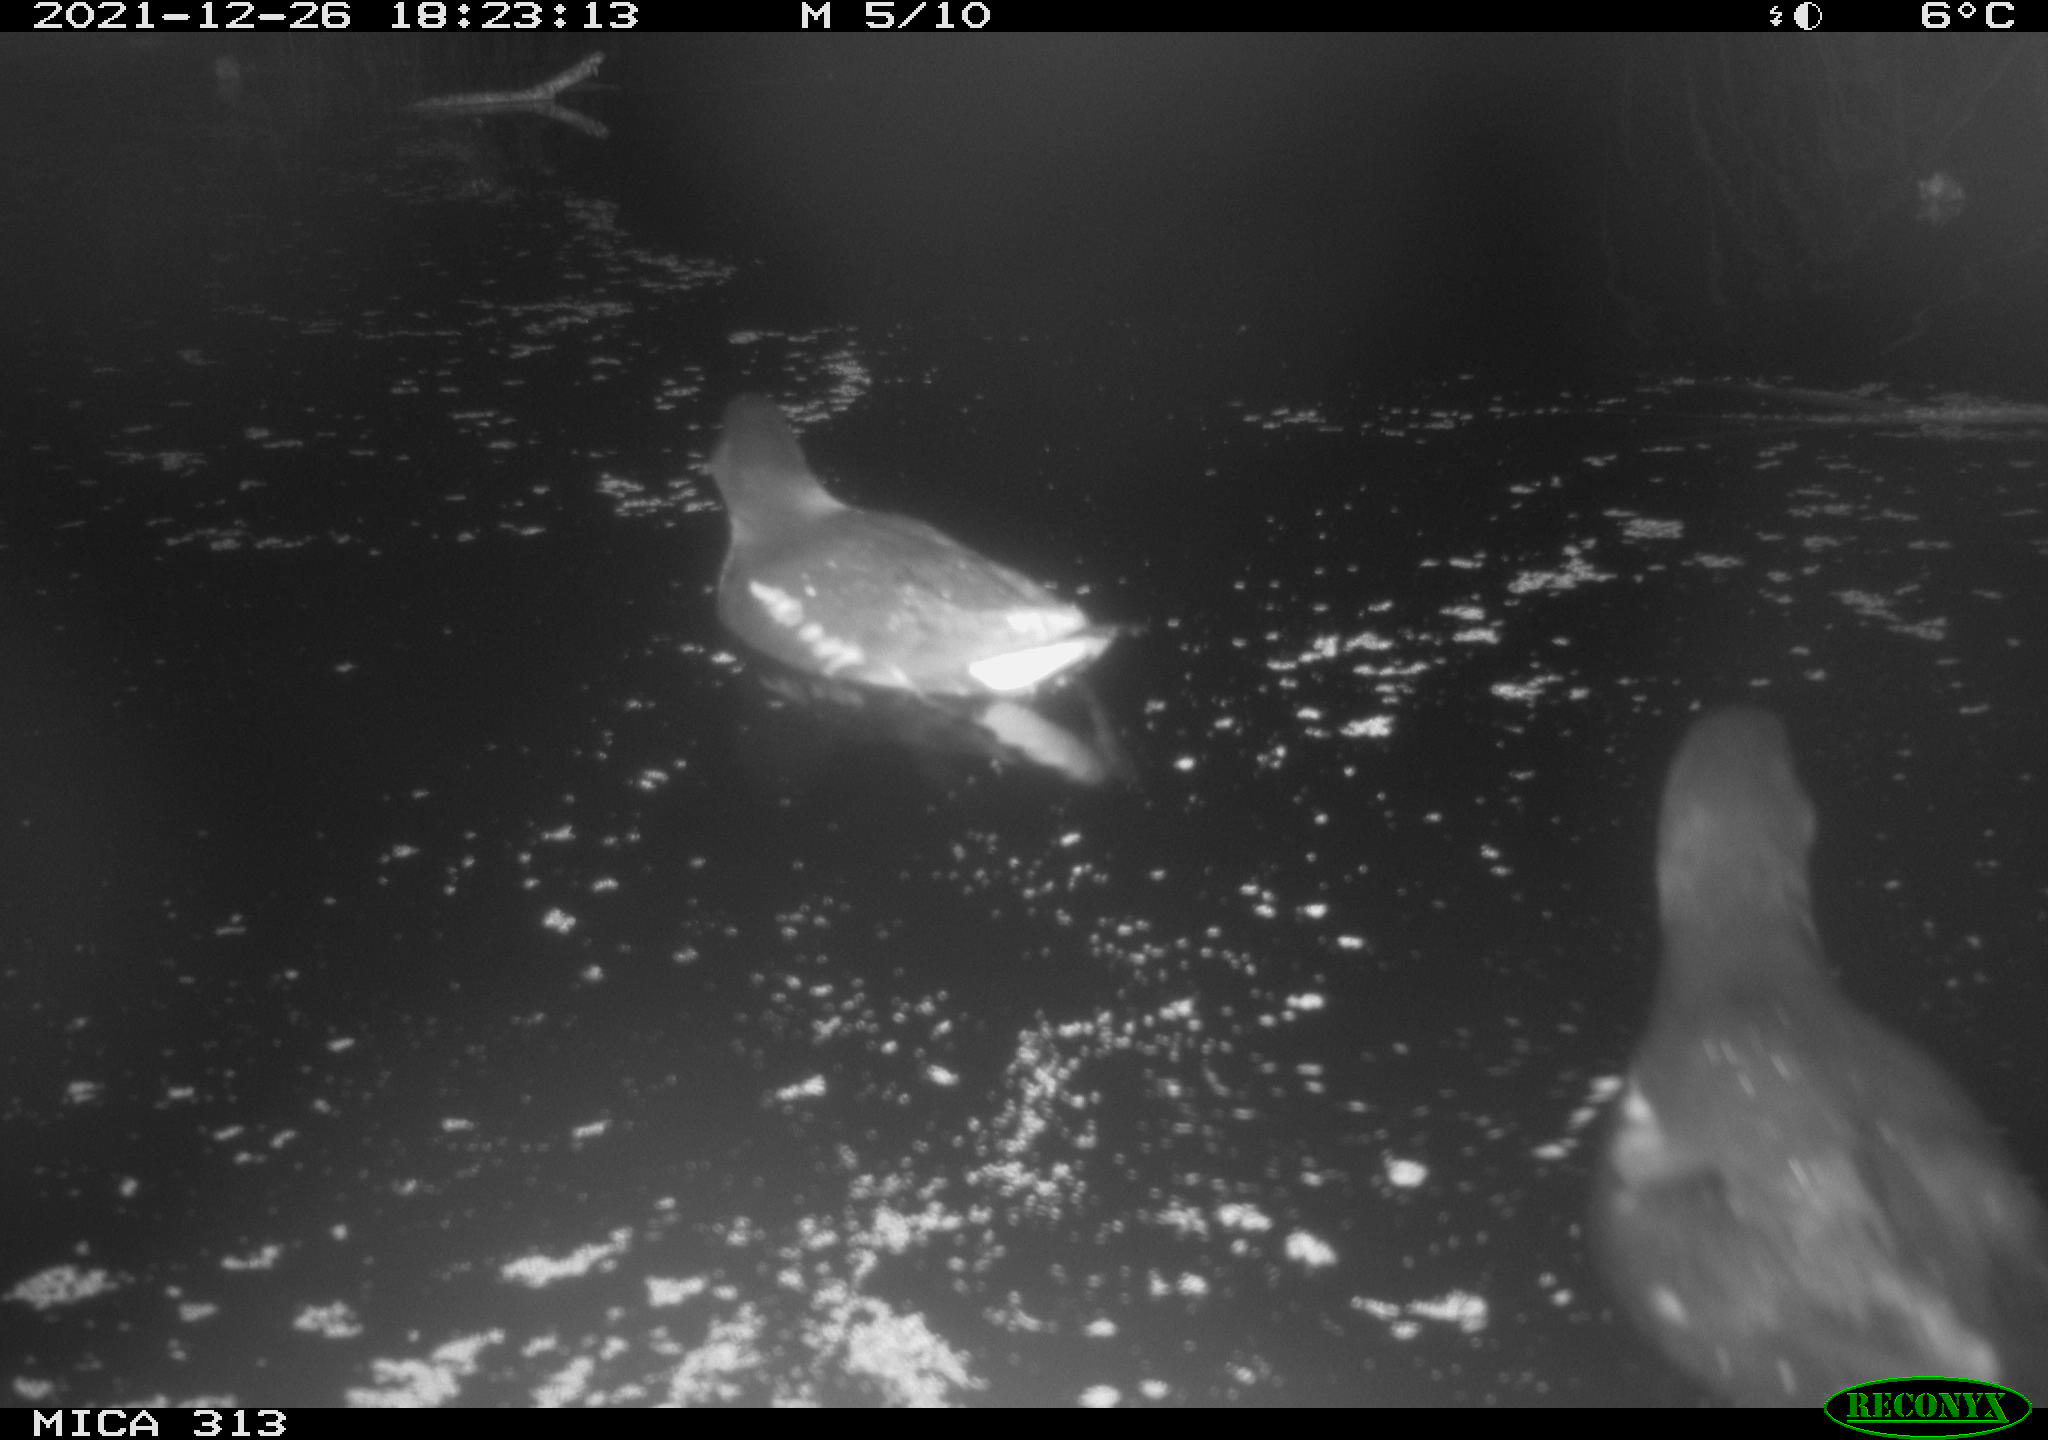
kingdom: Animalia
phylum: Chordata
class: Aves
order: Gruiformes
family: Rallidae
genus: Gallinula
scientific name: Gallinula chloropus
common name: Common moorhen
